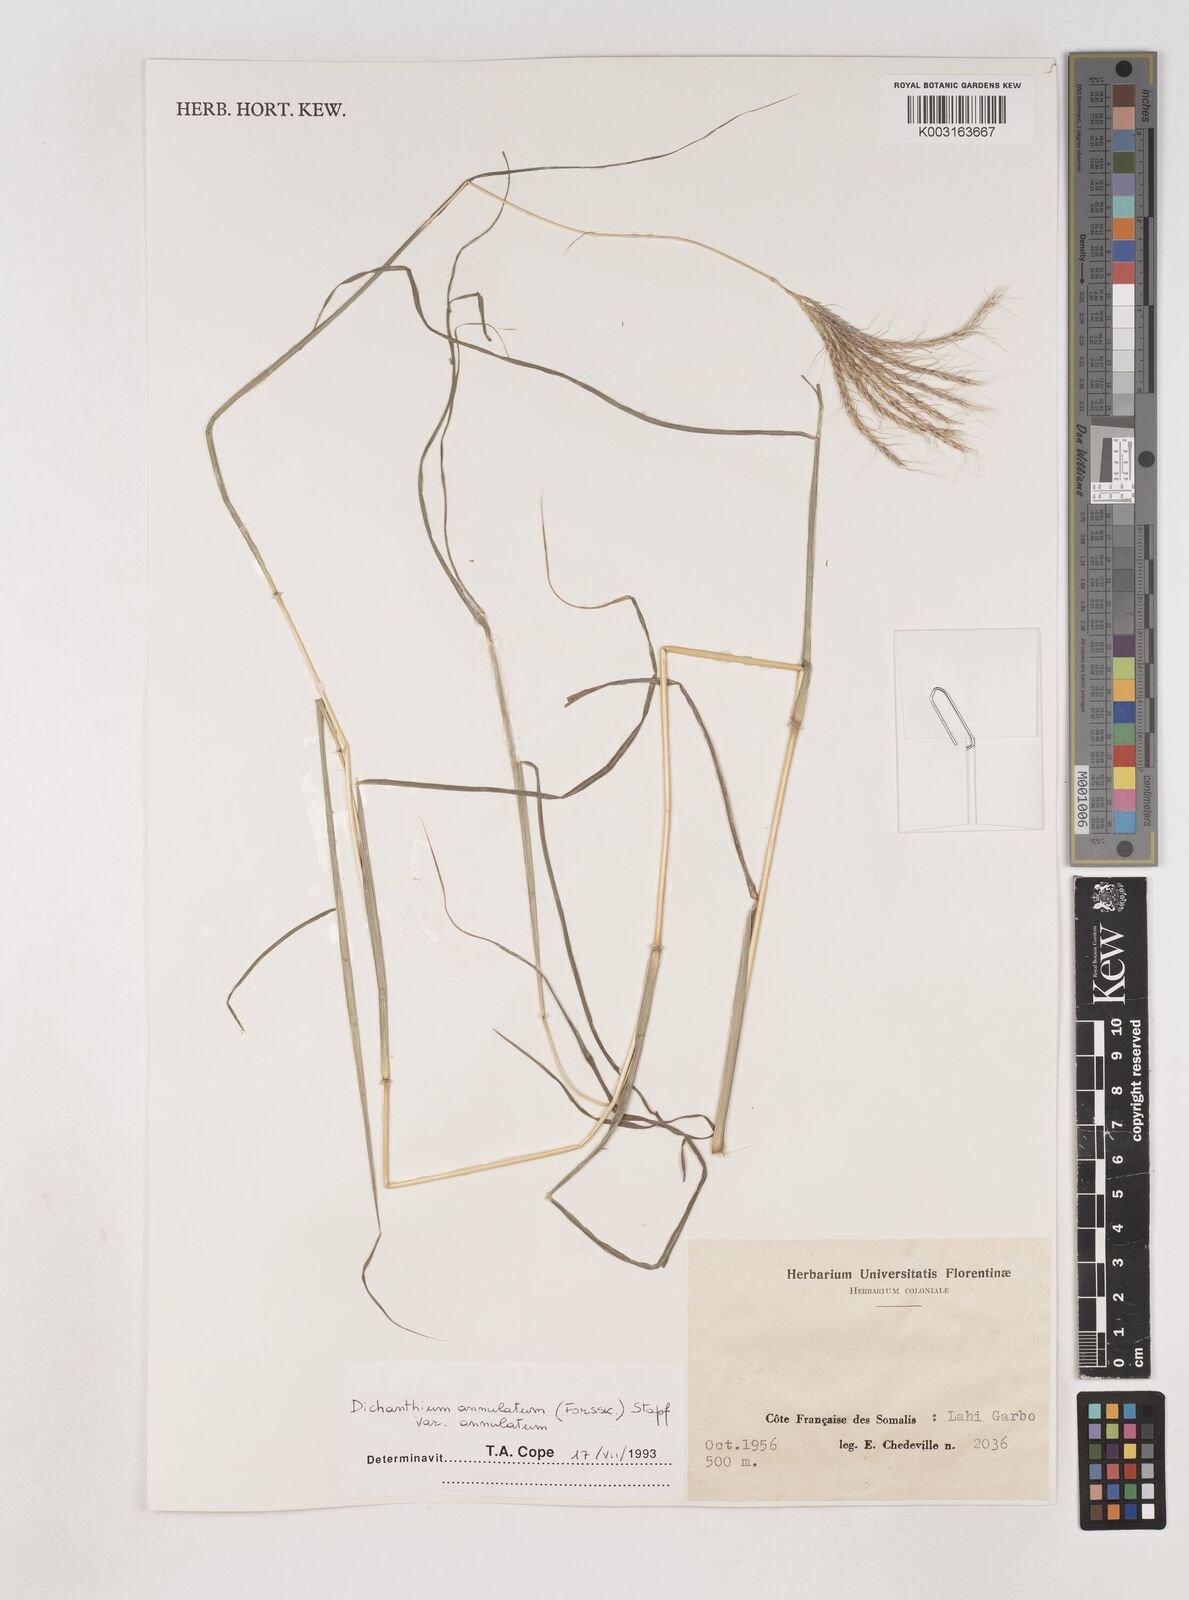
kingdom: Plantae
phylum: Tracheophyta
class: Liliopsida
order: Poales
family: Poaceae
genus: Dichanthium
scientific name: Dichanthium annulatum
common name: Kleberg's bluestem
